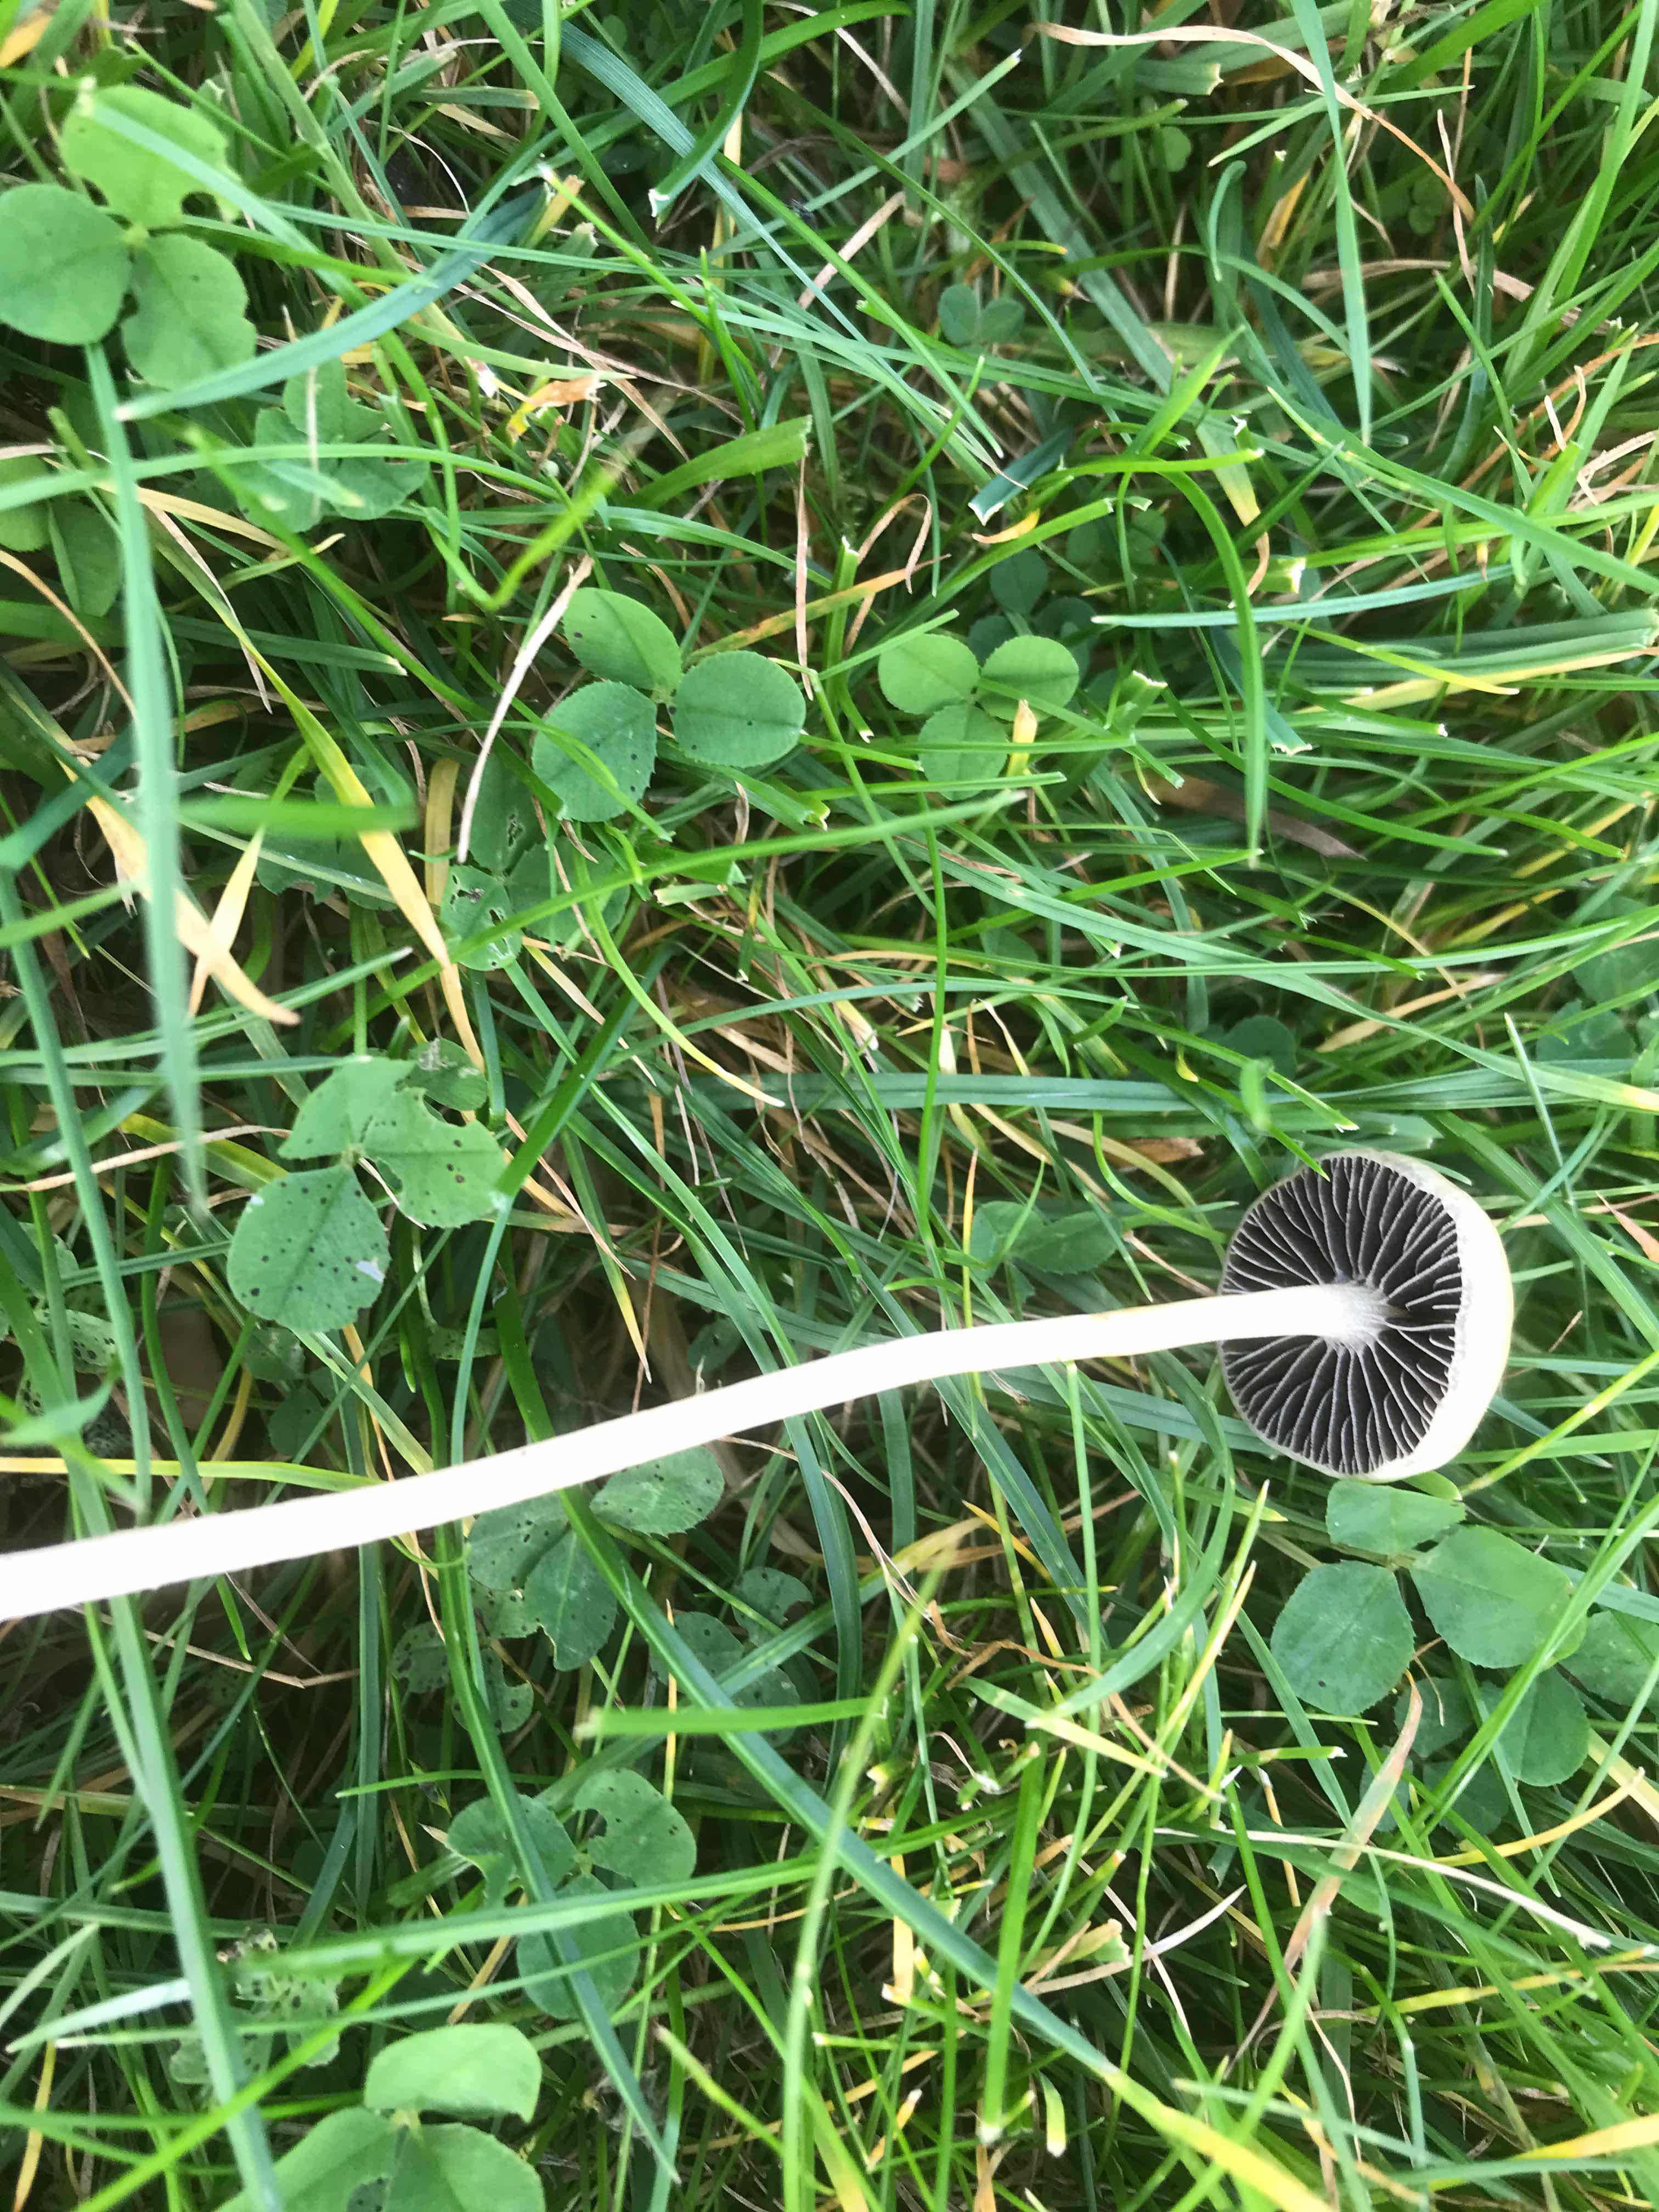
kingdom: Fungi
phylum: Basidiomycota
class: Agaricomycetes
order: Agaricales
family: Strophariaceae
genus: Protostropharia
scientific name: Protostropharia semiglobata
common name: halvkugleformet bredblad
